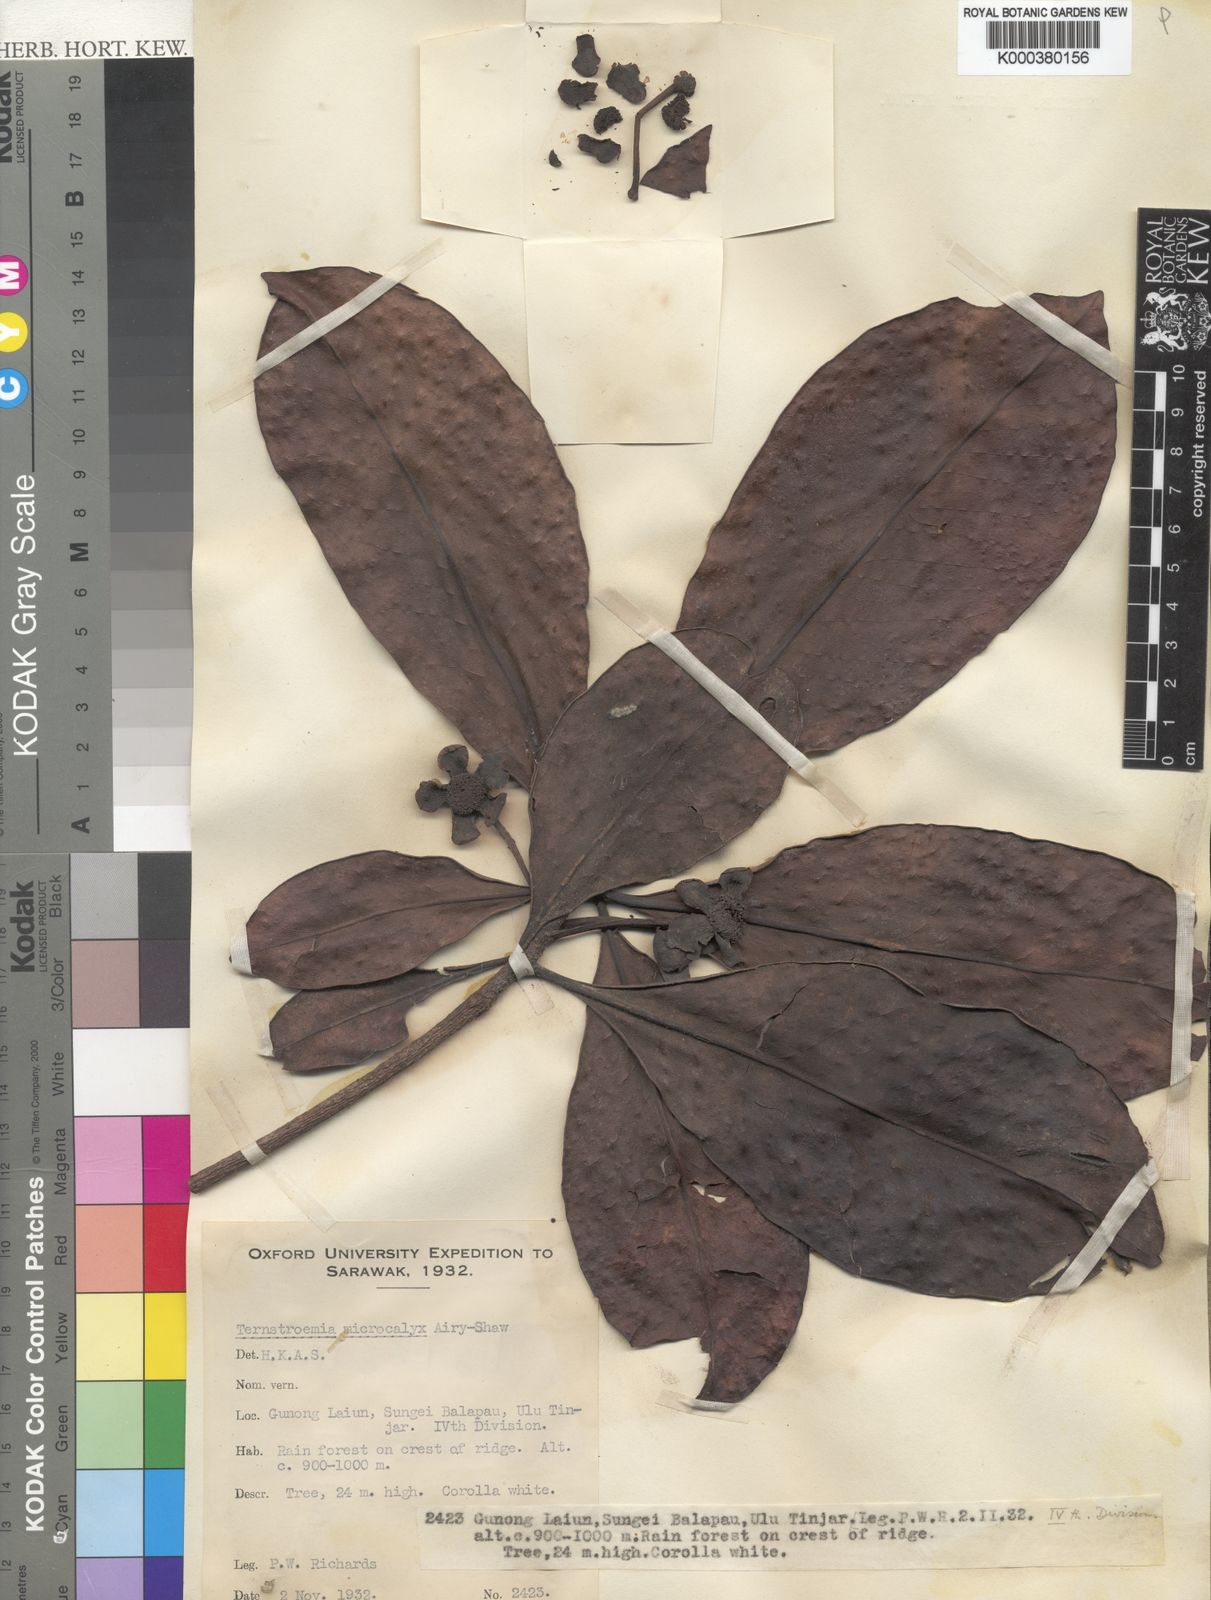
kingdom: Plantae
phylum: Tracheophyta
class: Magnoliopsida
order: Ericales
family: Pentaphylacaceae
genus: Ternstroemia
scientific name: Ternstroemia palembangensis
